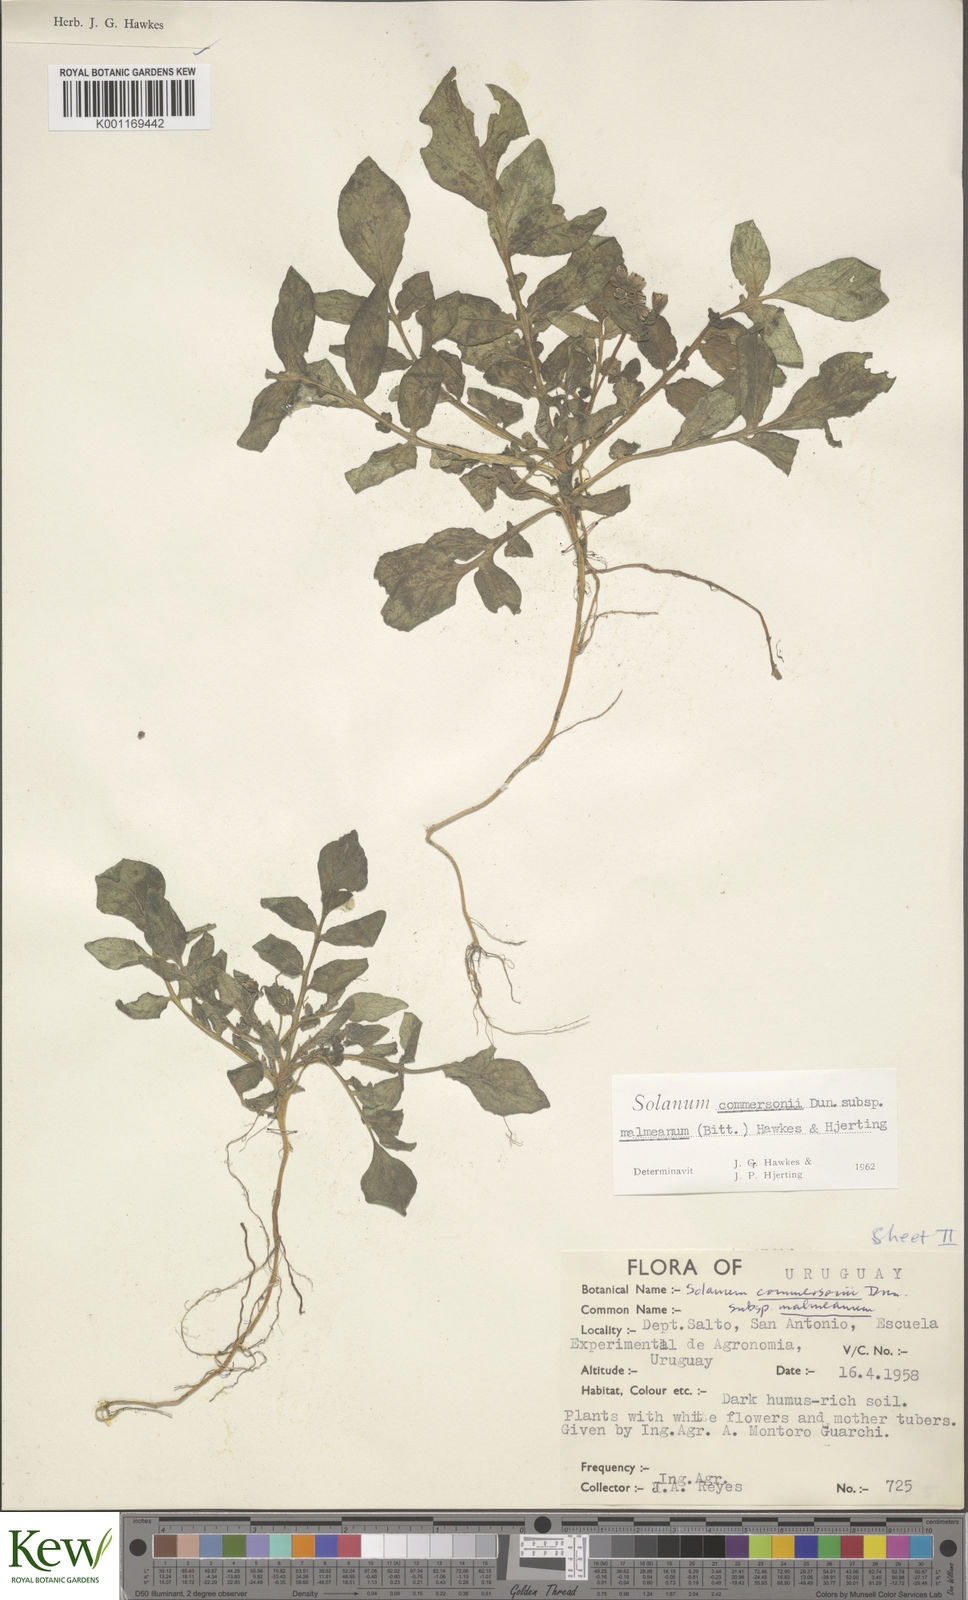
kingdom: Plantae
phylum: Tracheophyta
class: Magnoliopsida
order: Solanales
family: Solanaceae
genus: Solanum
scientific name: Solanum malmeanum
